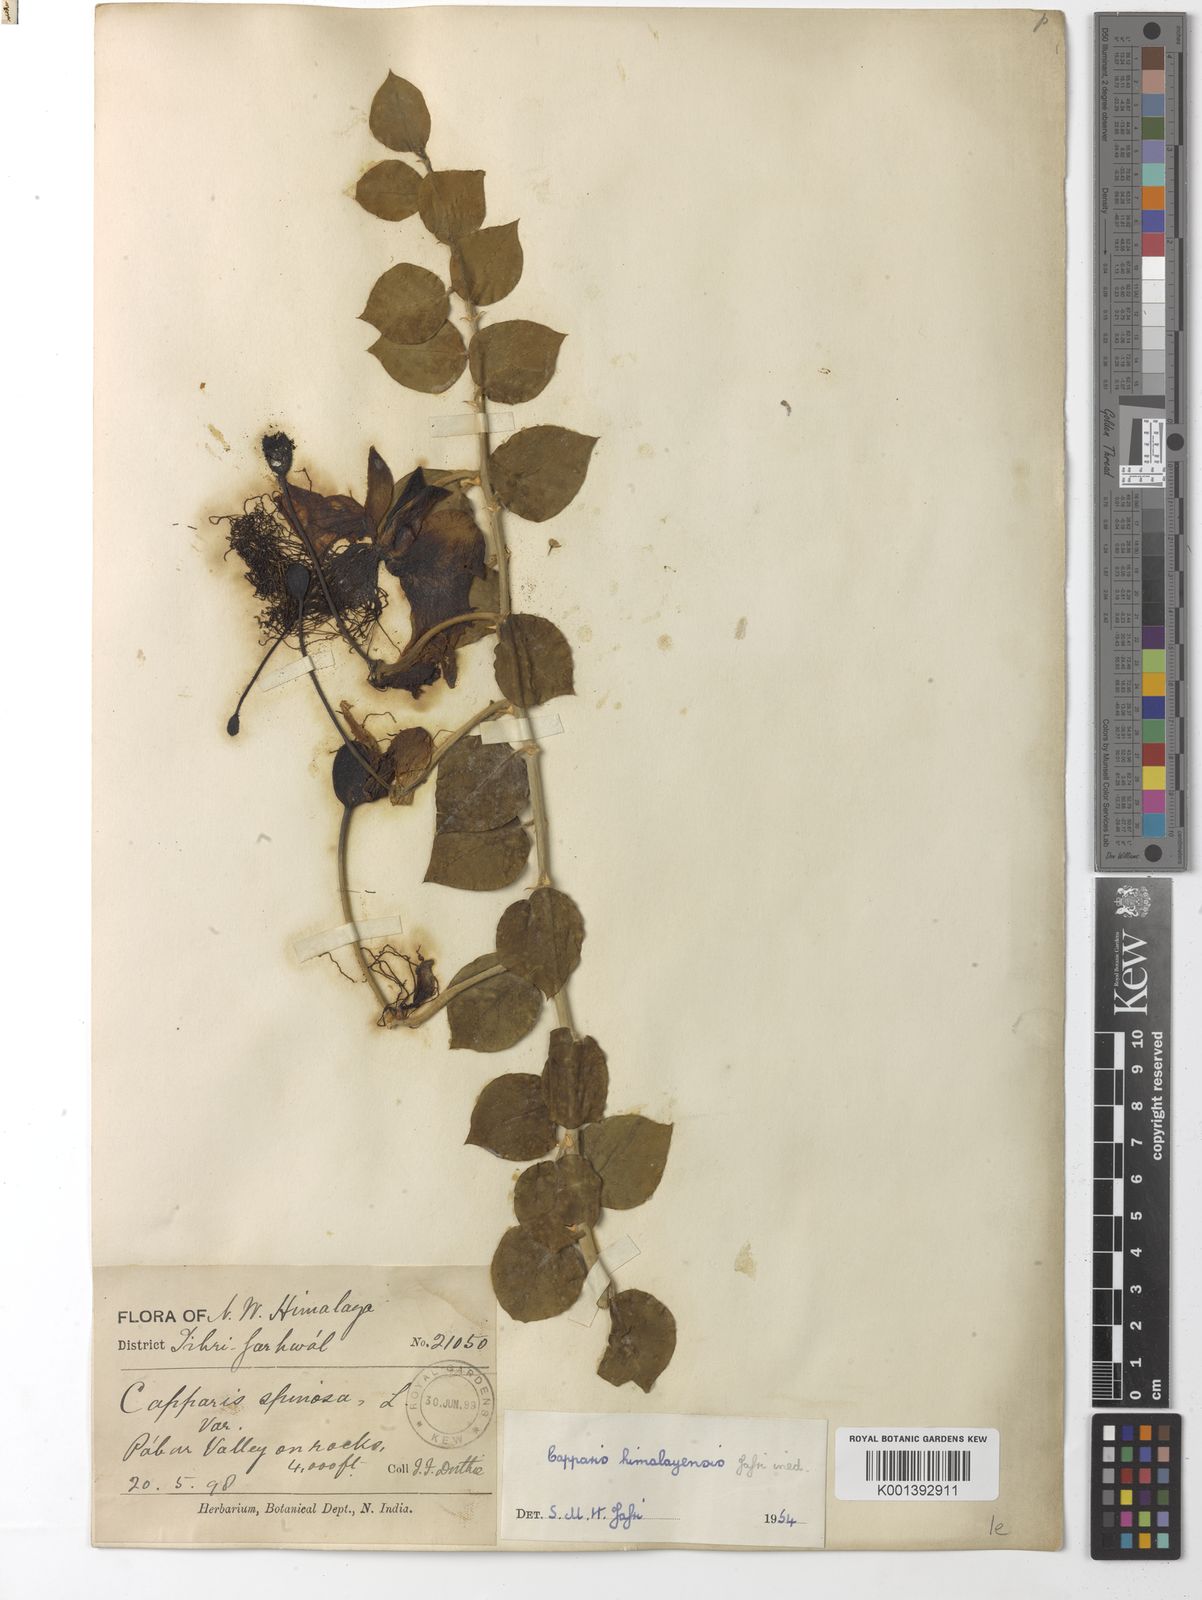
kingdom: Plantae
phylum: Tracheophyta
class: Magnoliopsida
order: Brassicales
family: Capparaceae
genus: Capparis
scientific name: Capparis spinosa
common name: Caper
